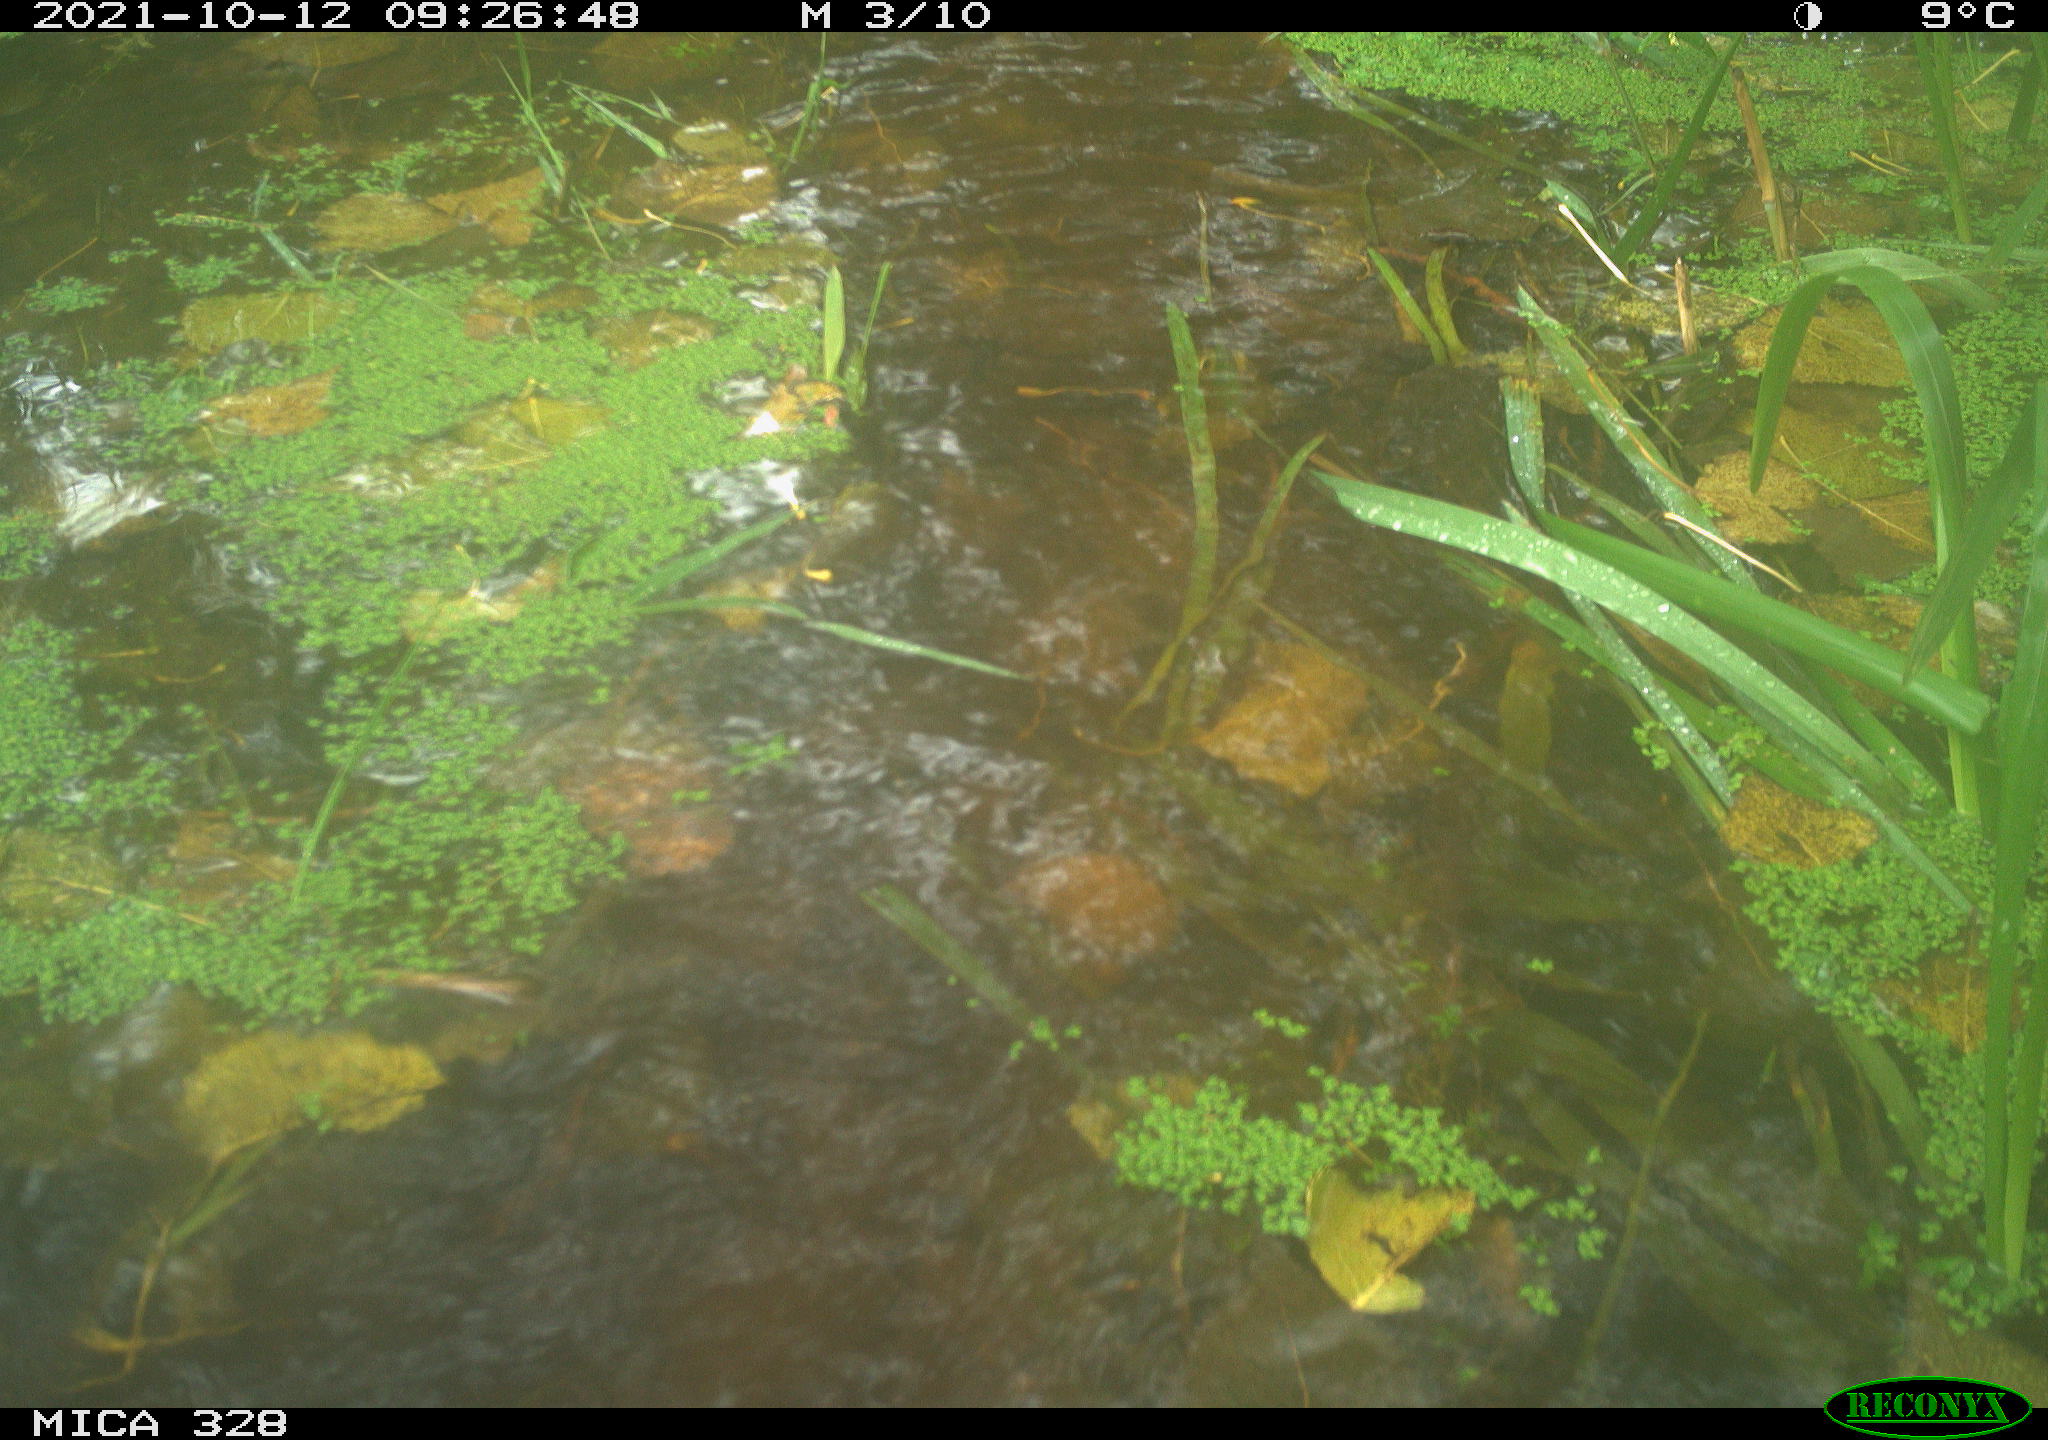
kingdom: Animalia
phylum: Chordata
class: Mammalia
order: Rodentia
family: Cricetidae
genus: Ondatra
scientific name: Ondatra zibethicus
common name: Muskrat
